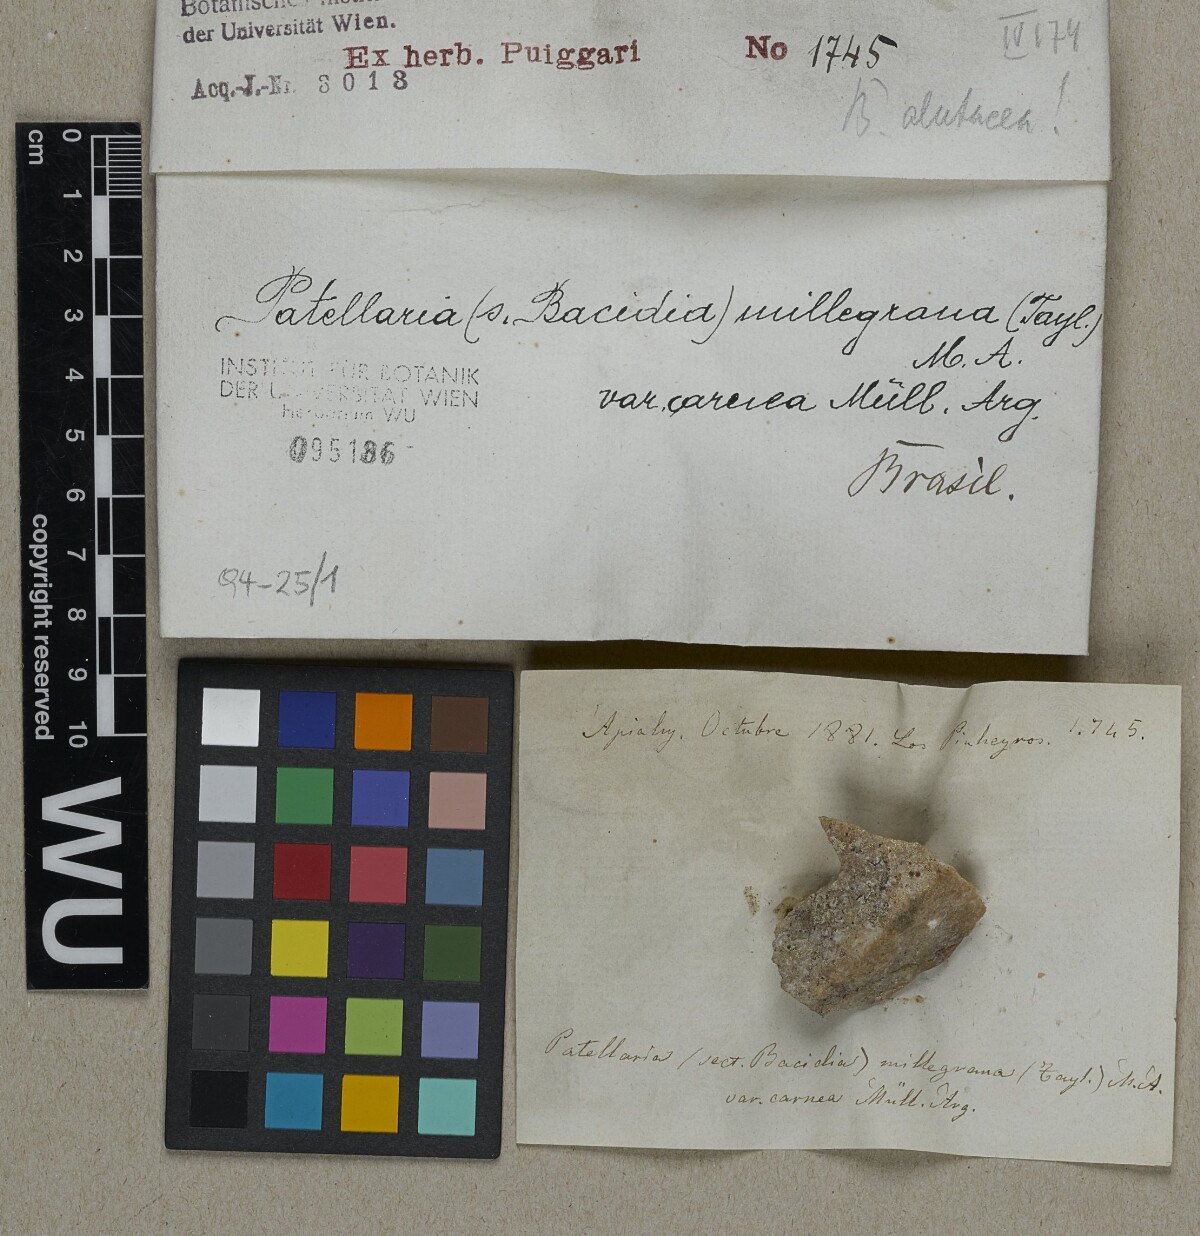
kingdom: Fungi
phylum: Ascomycota
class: Lecanoromycetes
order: Lecanorales
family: Ramalinaceae
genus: Bacidia
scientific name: Bacidia alutacea
